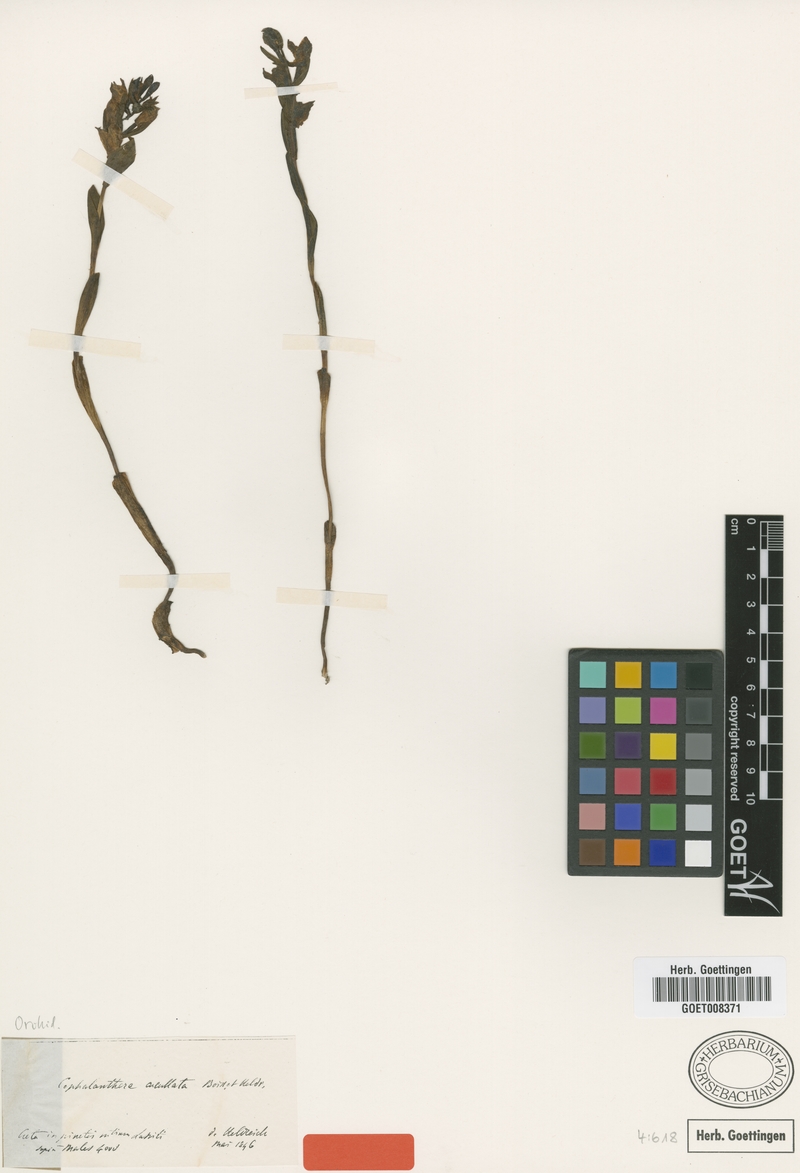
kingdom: Plantae
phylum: Tracheophyta
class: Liliopsida
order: Asparagales
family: Orchidaceae
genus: Cephalanthera
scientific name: Cephalanthera cucullata
